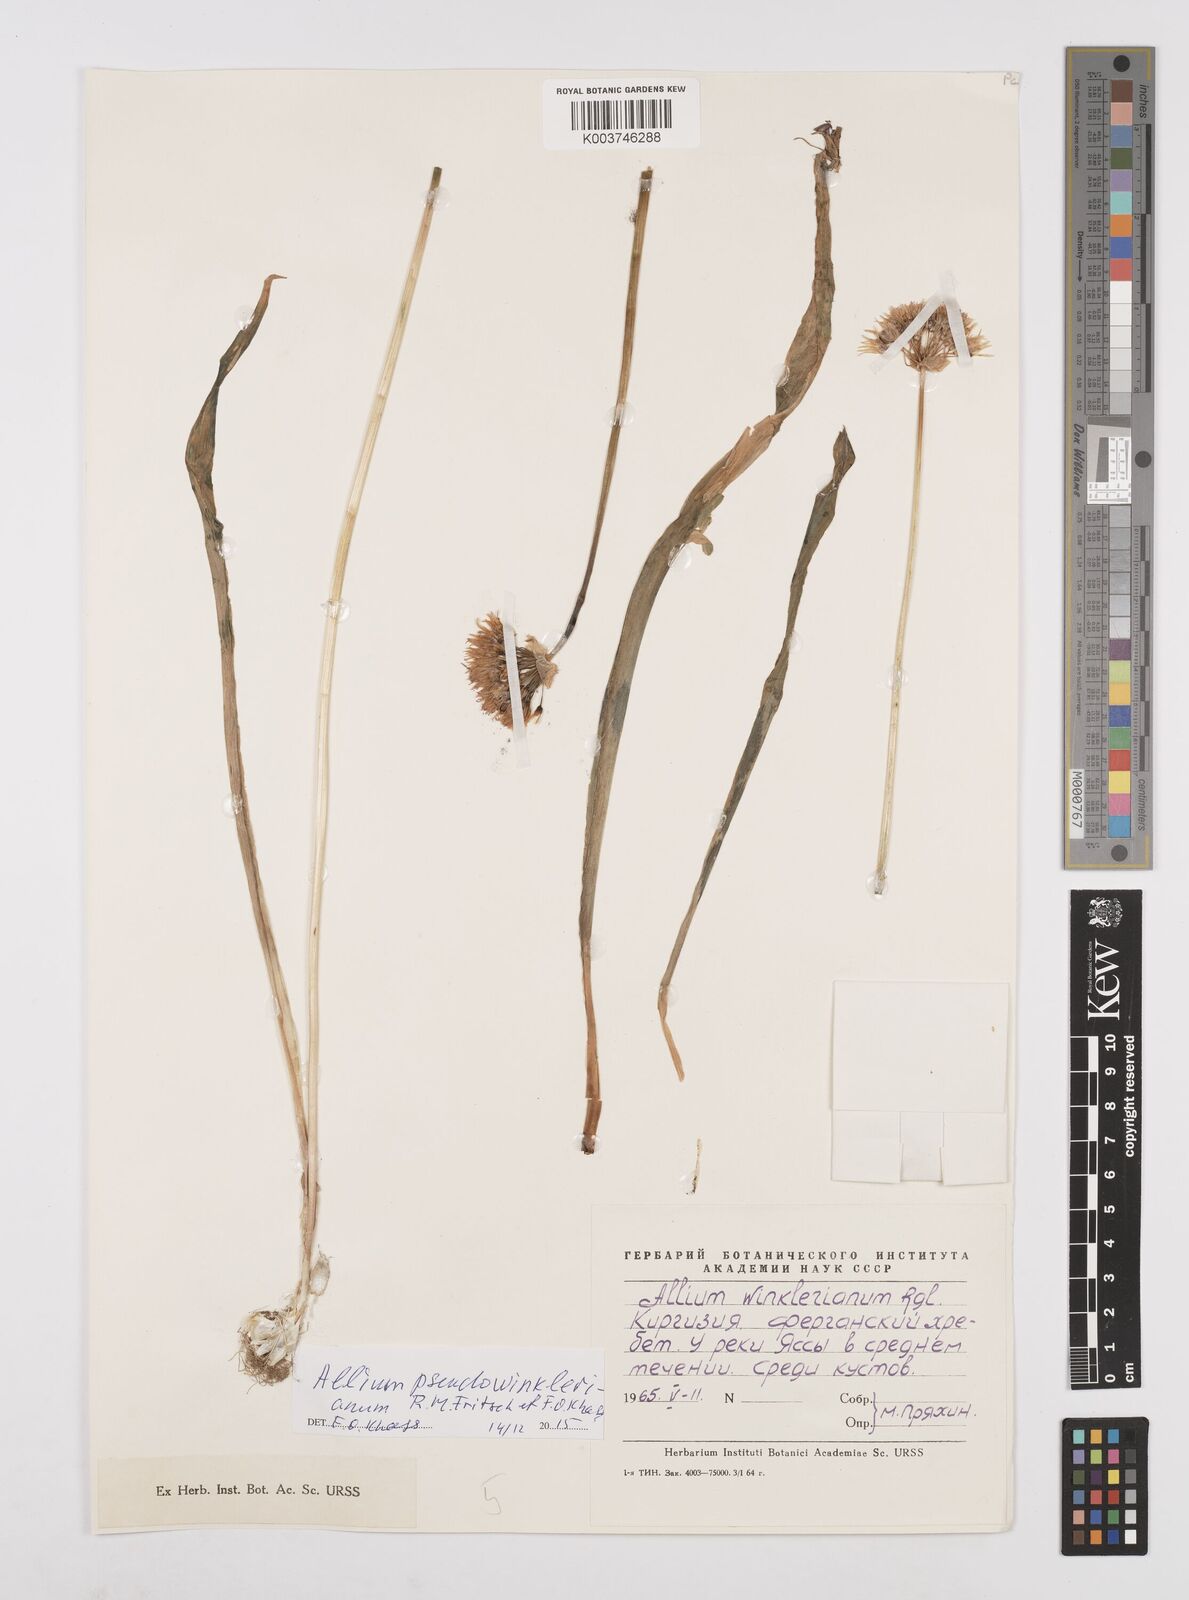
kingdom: Plantae
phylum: Tracheophyta
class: Liliopsida
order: Asparagales
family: Amaryllidaceae
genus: Allium
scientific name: Allium winklerianum
